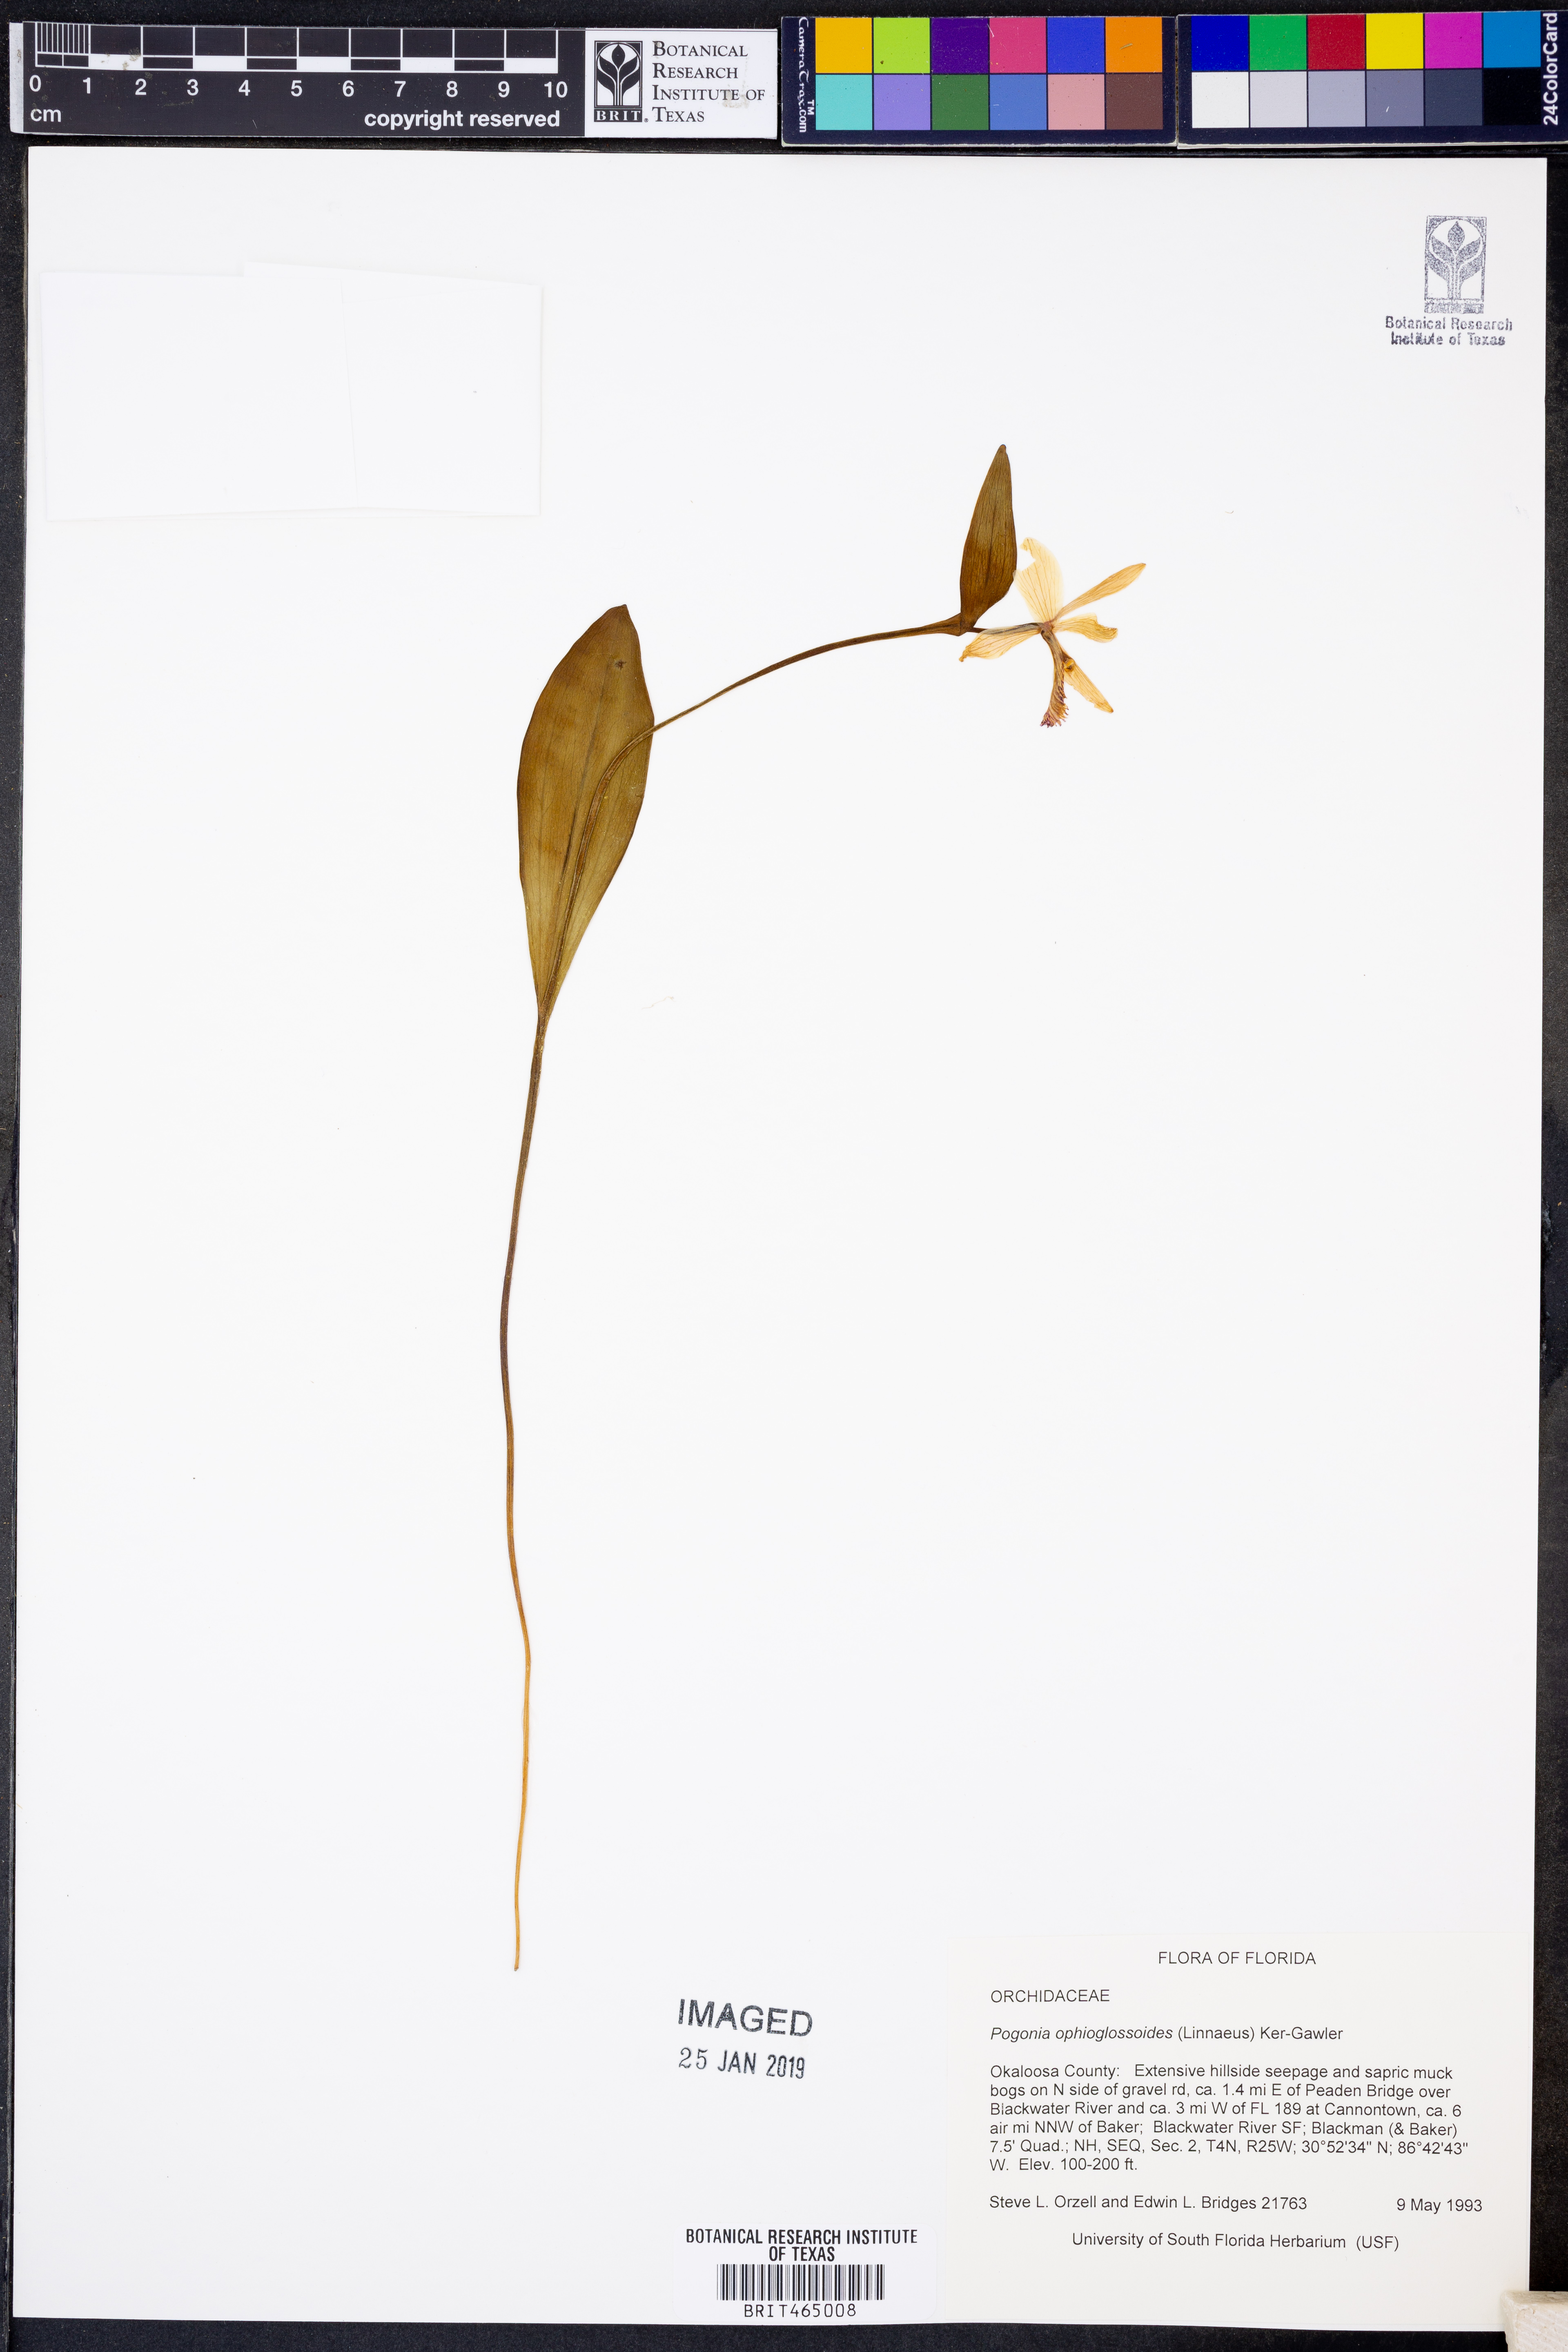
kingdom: Plantae
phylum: Tracheophyta
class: Liliopsida
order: Asparagales
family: Orchidaceae
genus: Pogonia
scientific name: Pogonia ophioglossoides
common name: Rose pogonia
